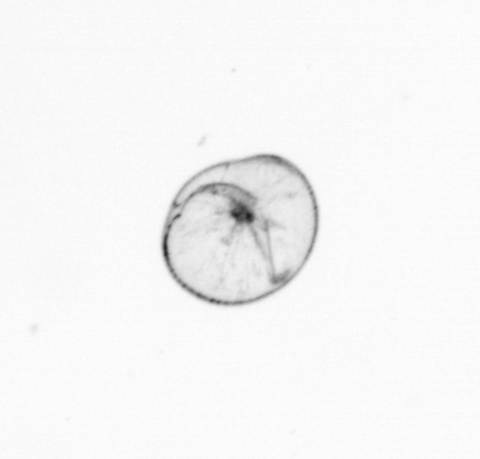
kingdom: Chromista
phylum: Myzozoa
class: Dinophyceae
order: Noctilucales
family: Noctilucaceae
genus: Noctiluca
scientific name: Noctiluca scintillans
